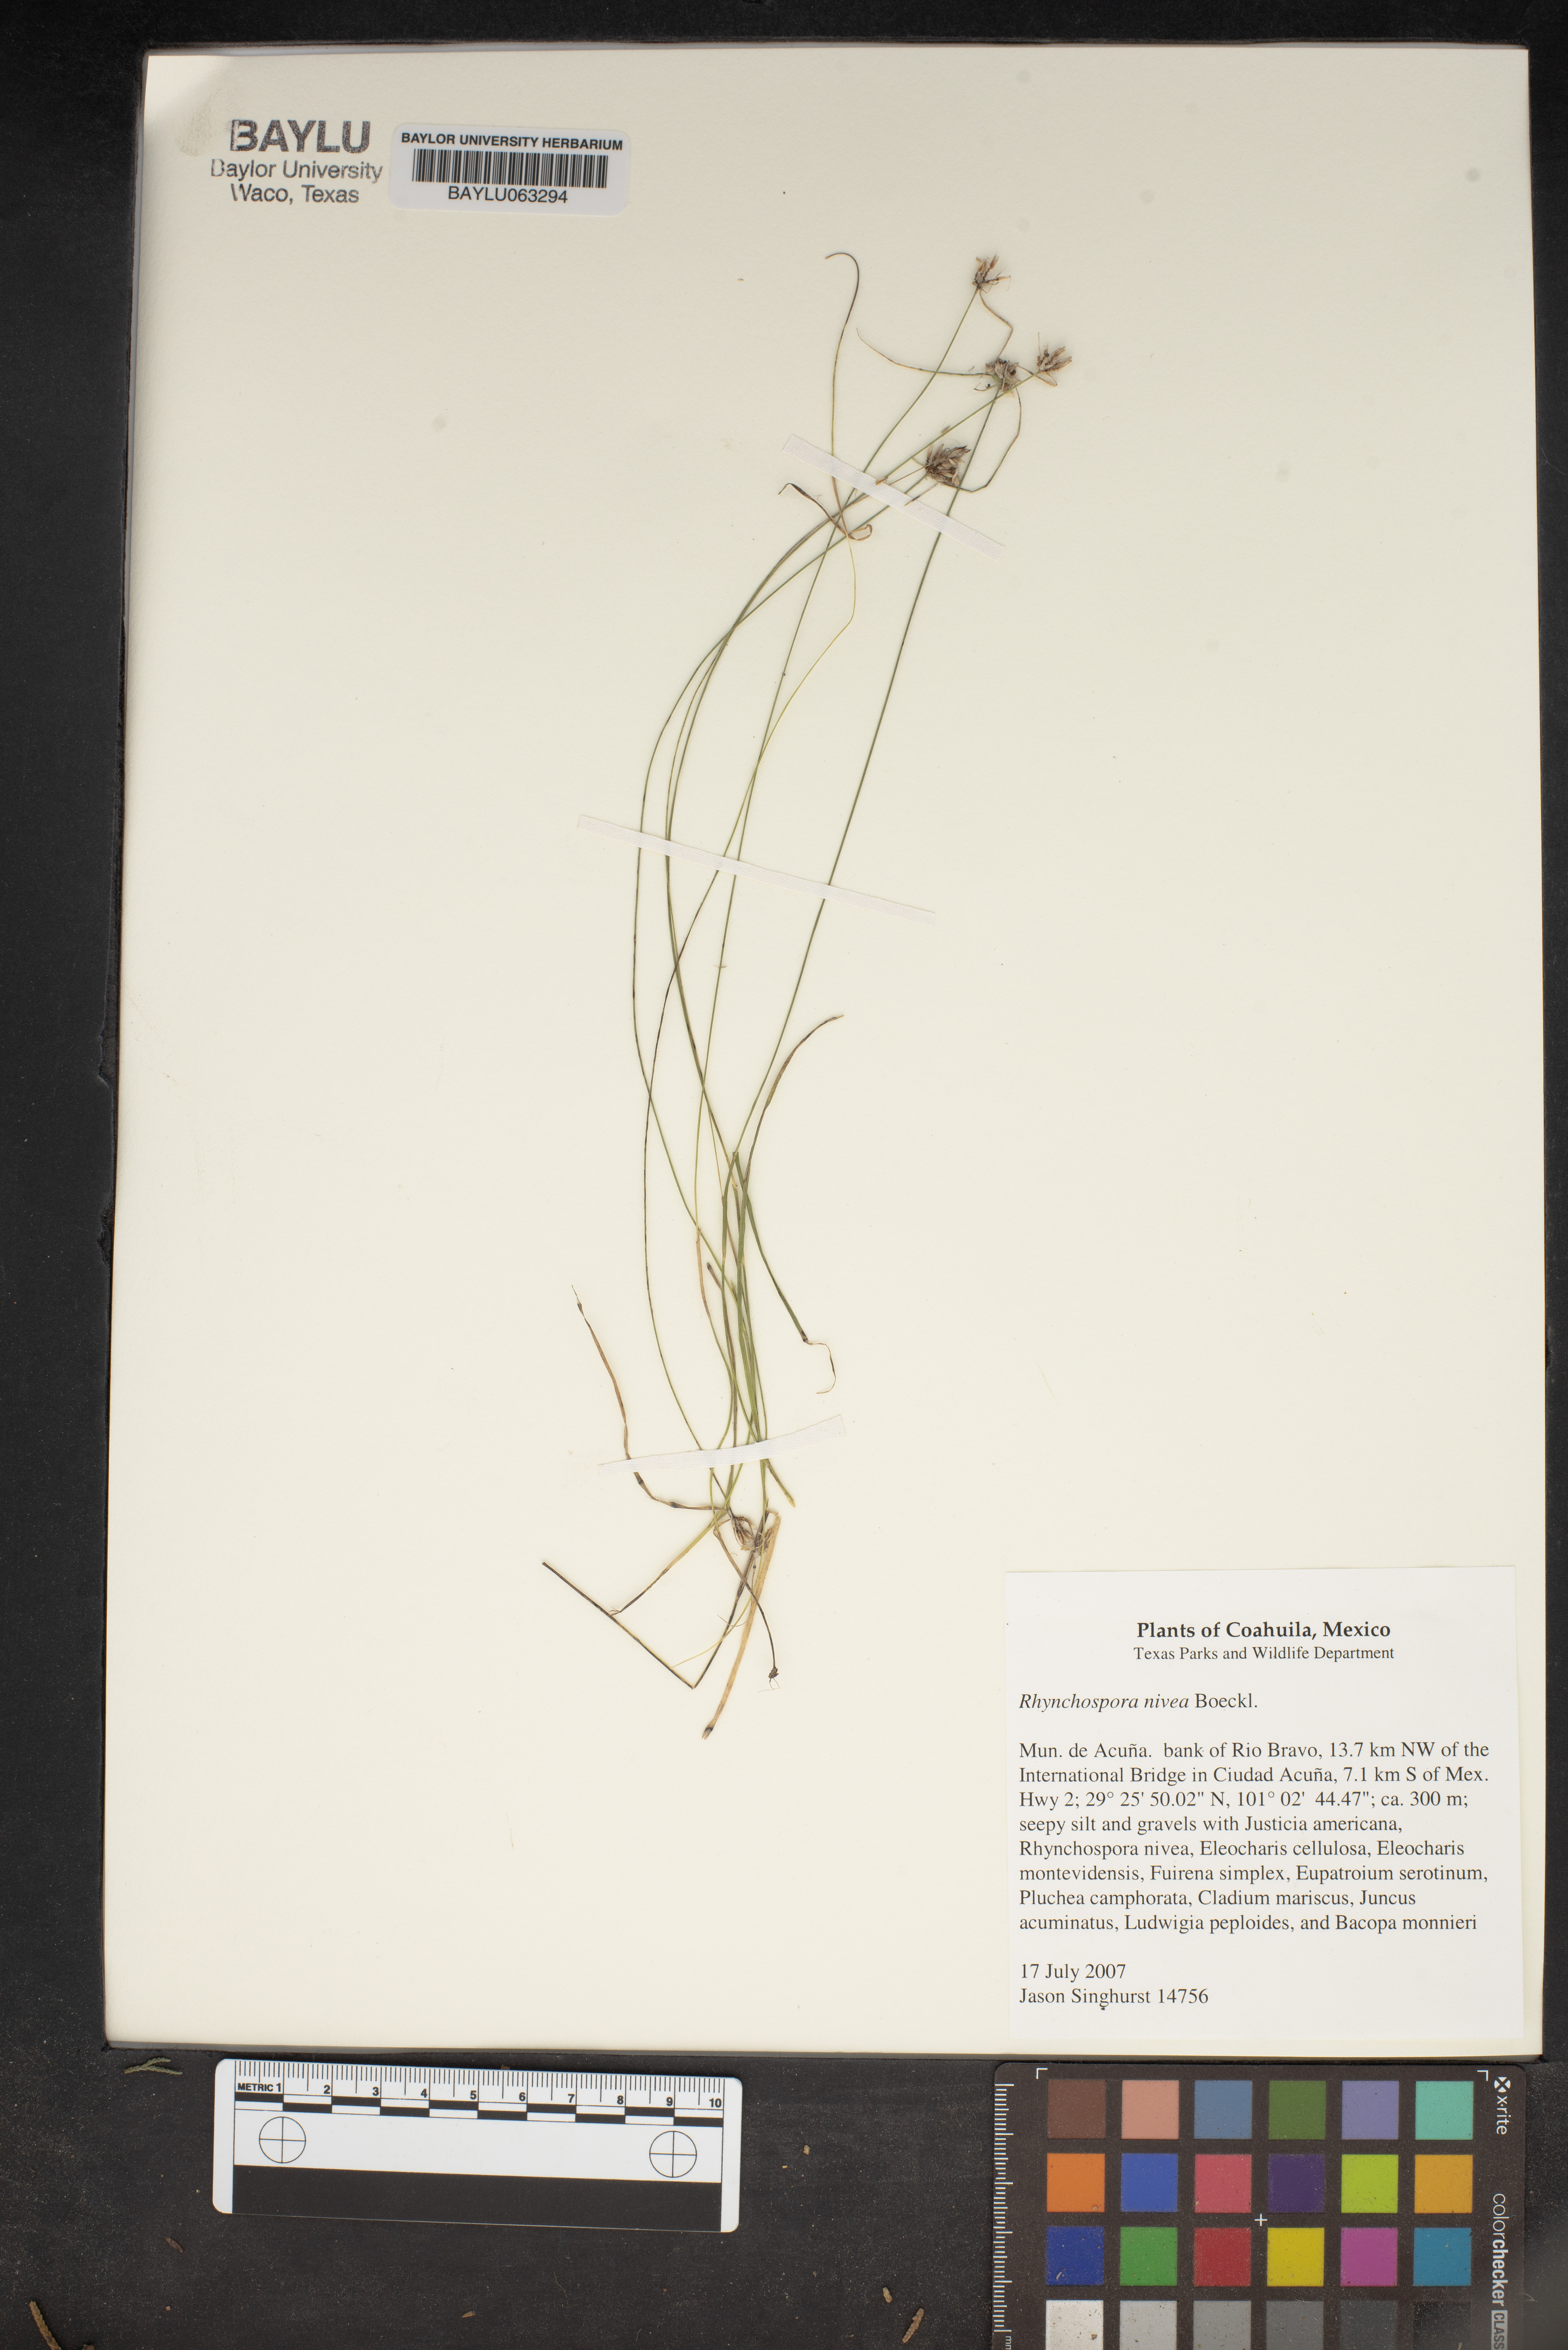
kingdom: Plantae
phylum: Tracheophyta
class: Liliopsida
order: Poales
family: Cyperaceae
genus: Rhynchospora
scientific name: Rhynchospora nivea
